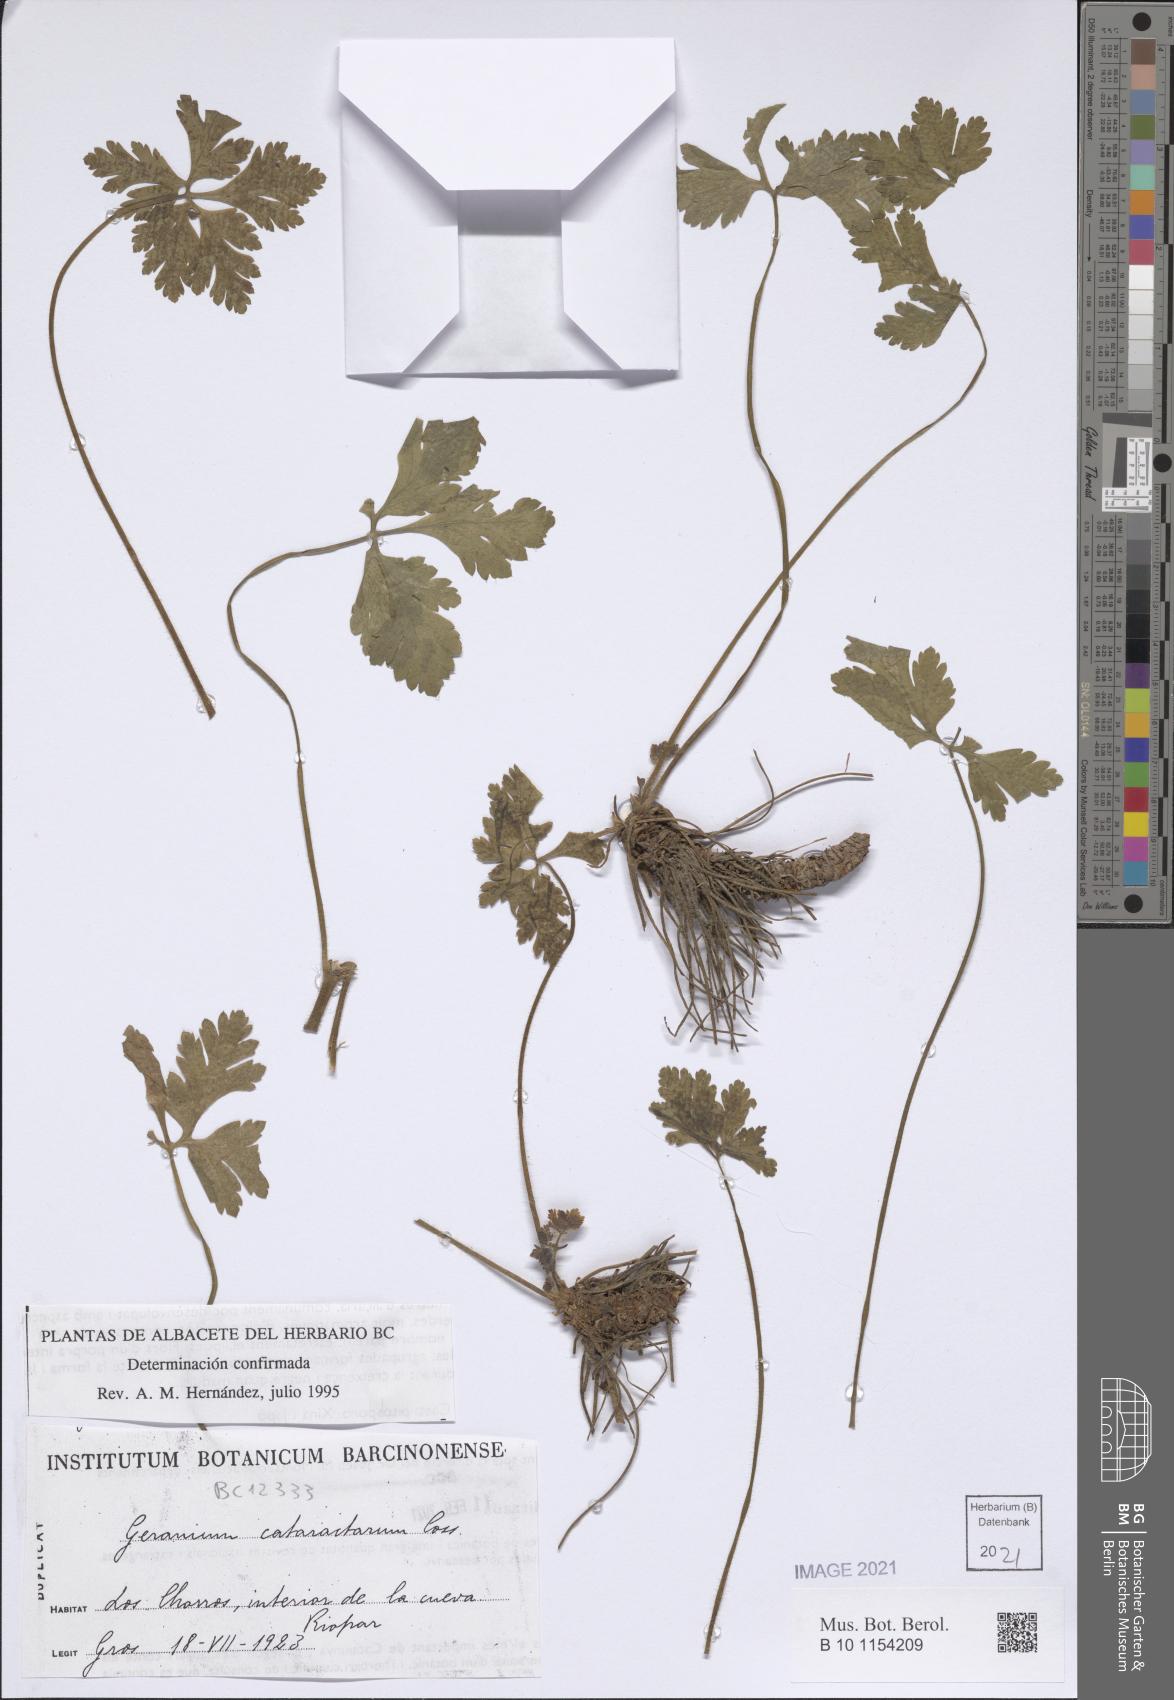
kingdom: Plantae
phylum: Tracheophyta
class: Magnoliopsida
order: Geraniales
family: Geraniaceae
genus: Geranium
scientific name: Geranium cataractarum
